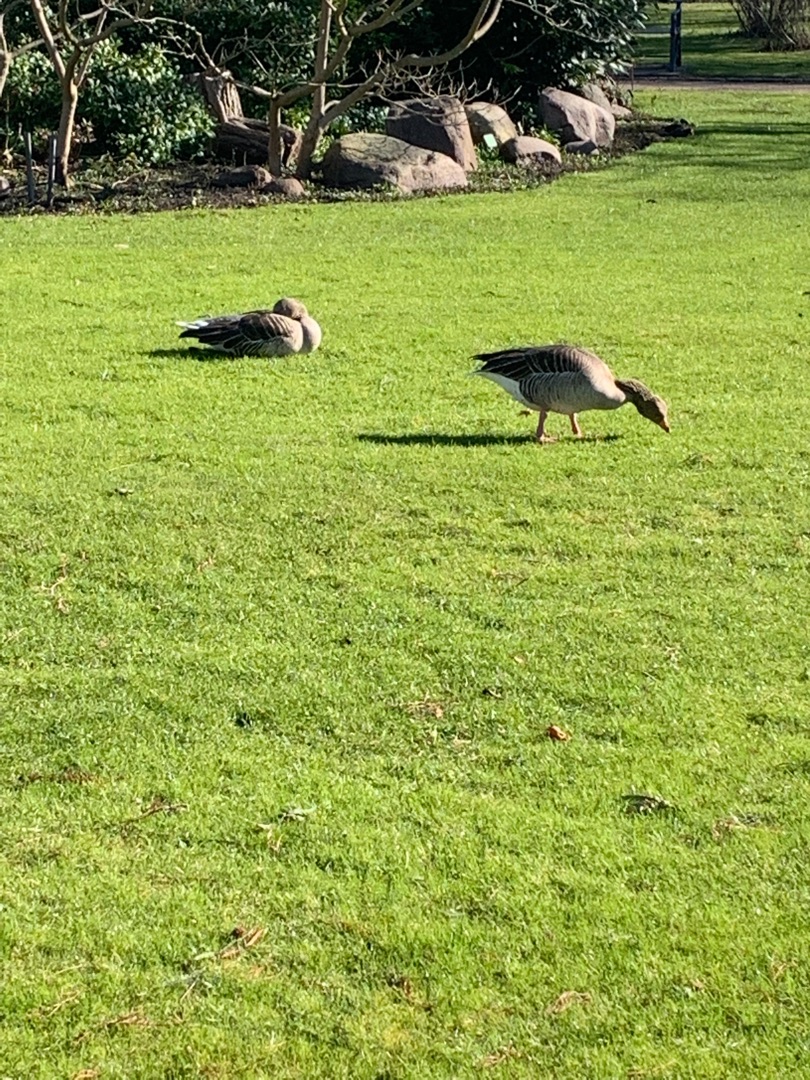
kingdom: Animalia
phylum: Chordata
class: Aves
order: Anseriformes
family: Anatidae
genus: Anser
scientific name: Anser anser
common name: Grågås
